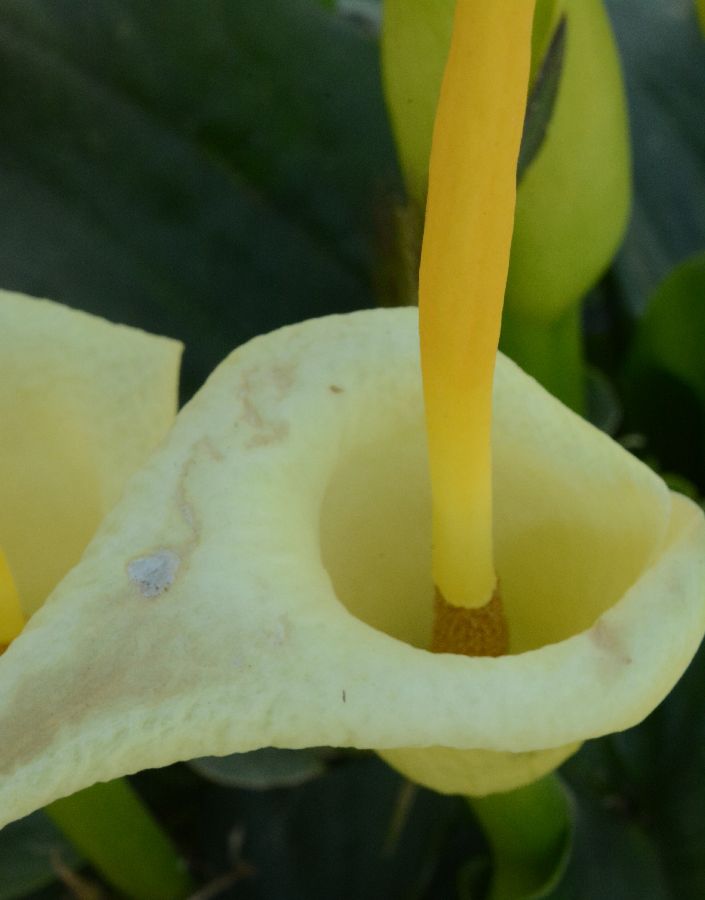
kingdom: Plantae
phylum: Tracheophyta
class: Liliopsida
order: Alismatales
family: Araceae
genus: Arum
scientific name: Arum creticum
